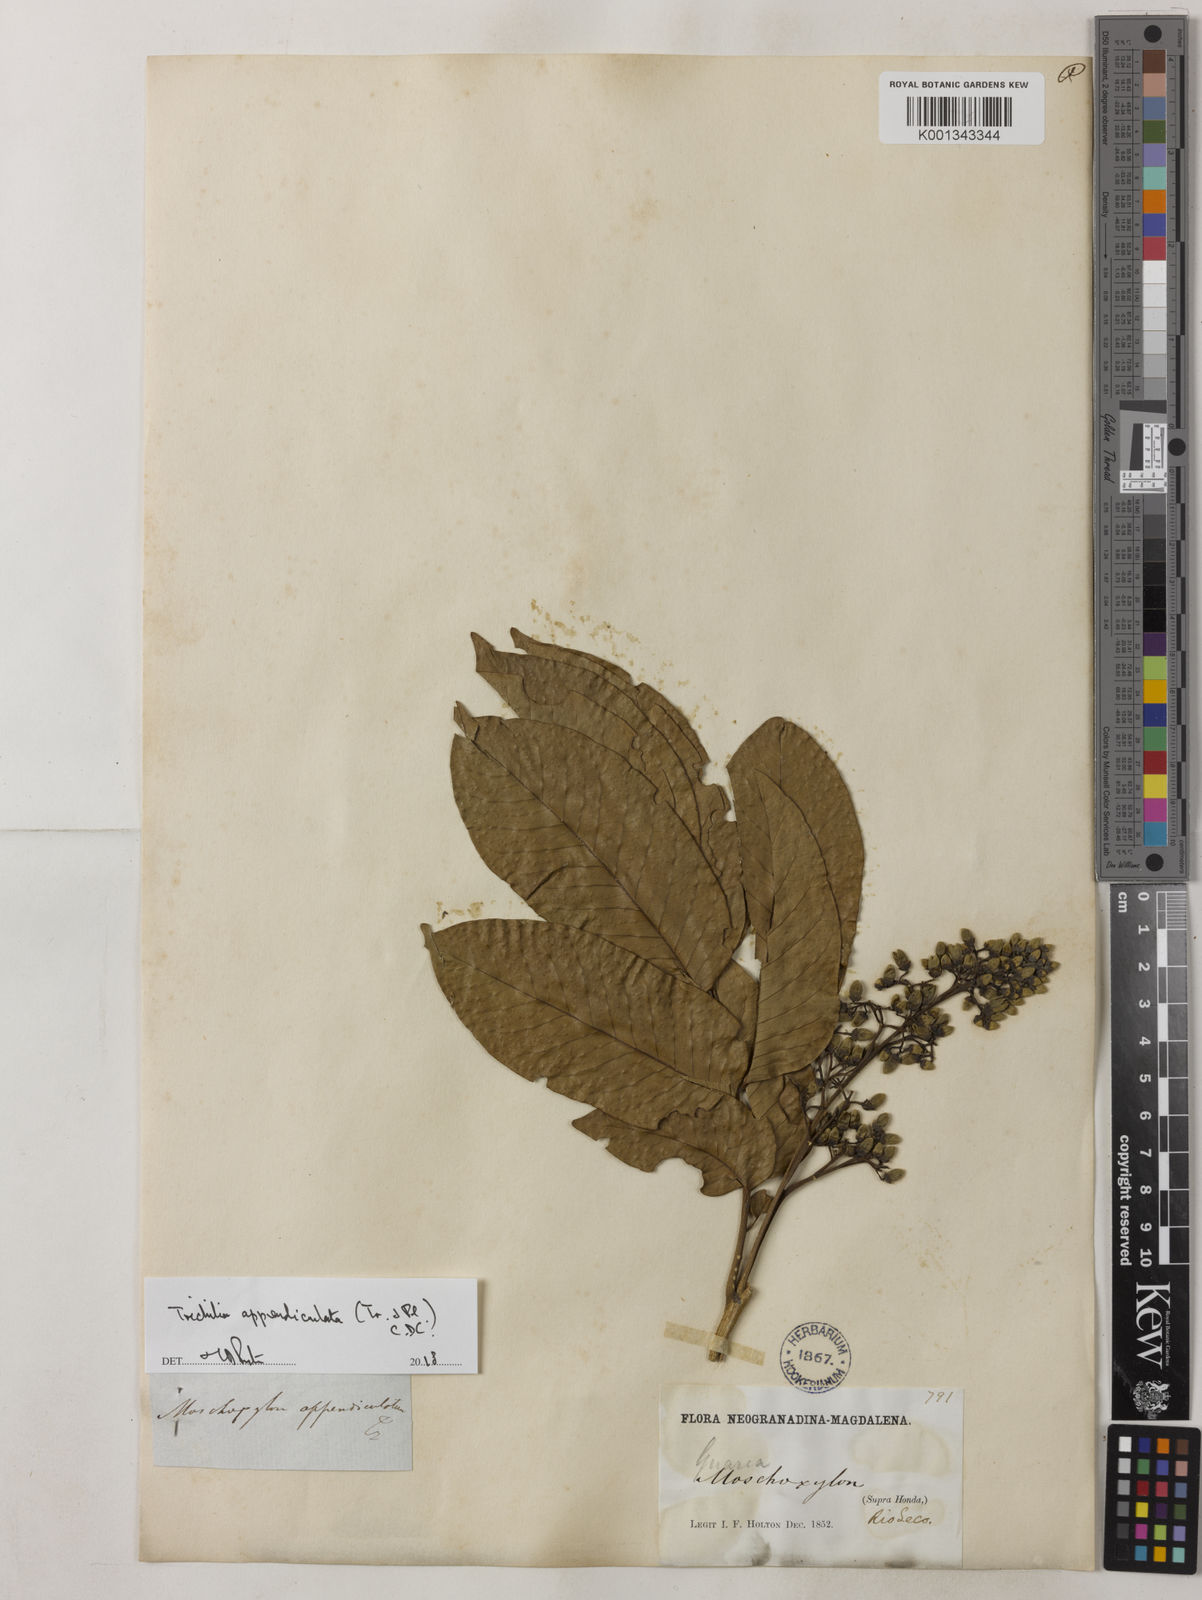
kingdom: Plantae
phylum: Tracheophyta
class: Magnoliopsida
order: Sapindales
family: Meliaceae
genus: Trichilia
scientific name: Trichilia appendiculata
